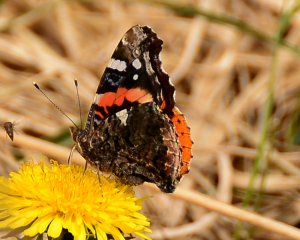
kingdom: Animalia
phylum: Arthropoda
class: Insecta
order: Lepidoptera
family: Nymphalidae
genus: Vanessa
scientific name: Vanessa atalanta
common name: Red Admiral
